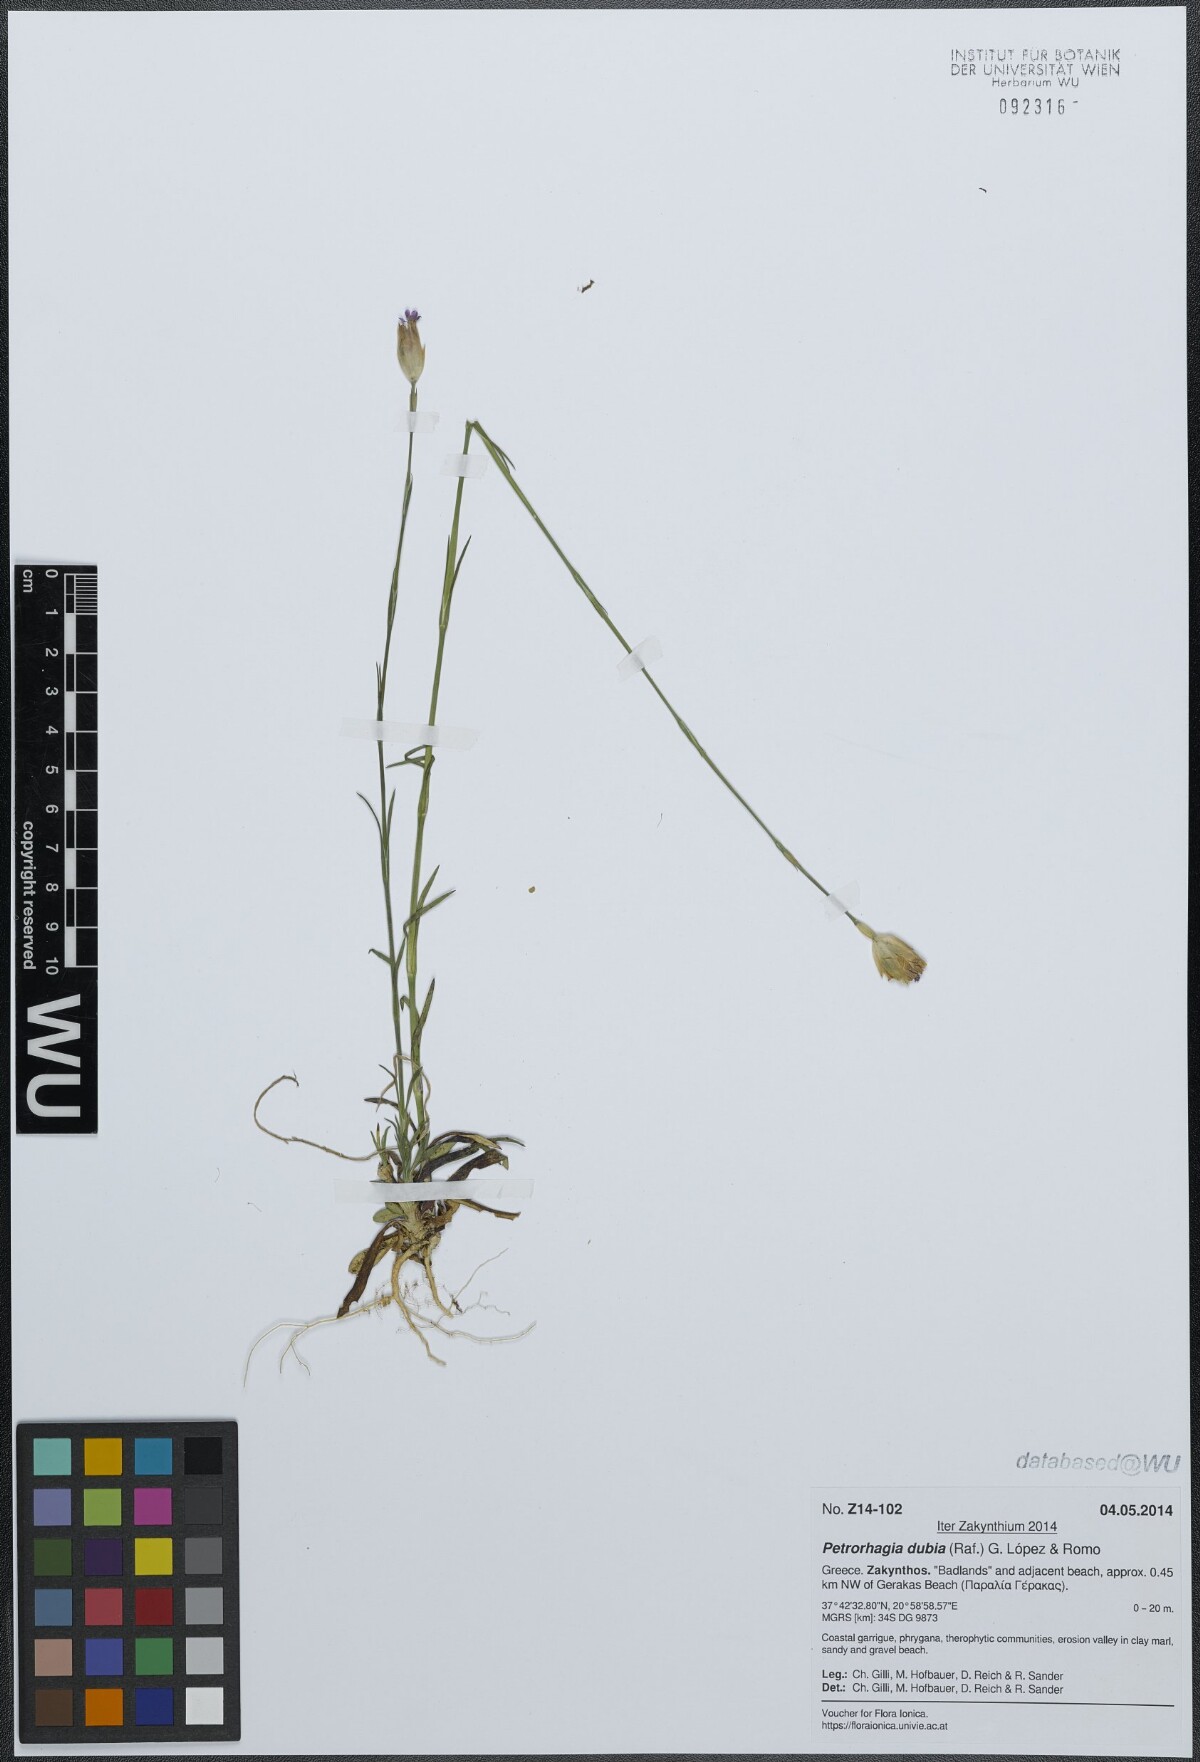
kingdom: Plantae
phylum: Tracheophyta
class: Magnoliopsida
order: Caryophyllales
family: Caryophyllaceae
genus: Petrorhagia
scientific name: Petrorhagia dubia
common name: Hairypink
